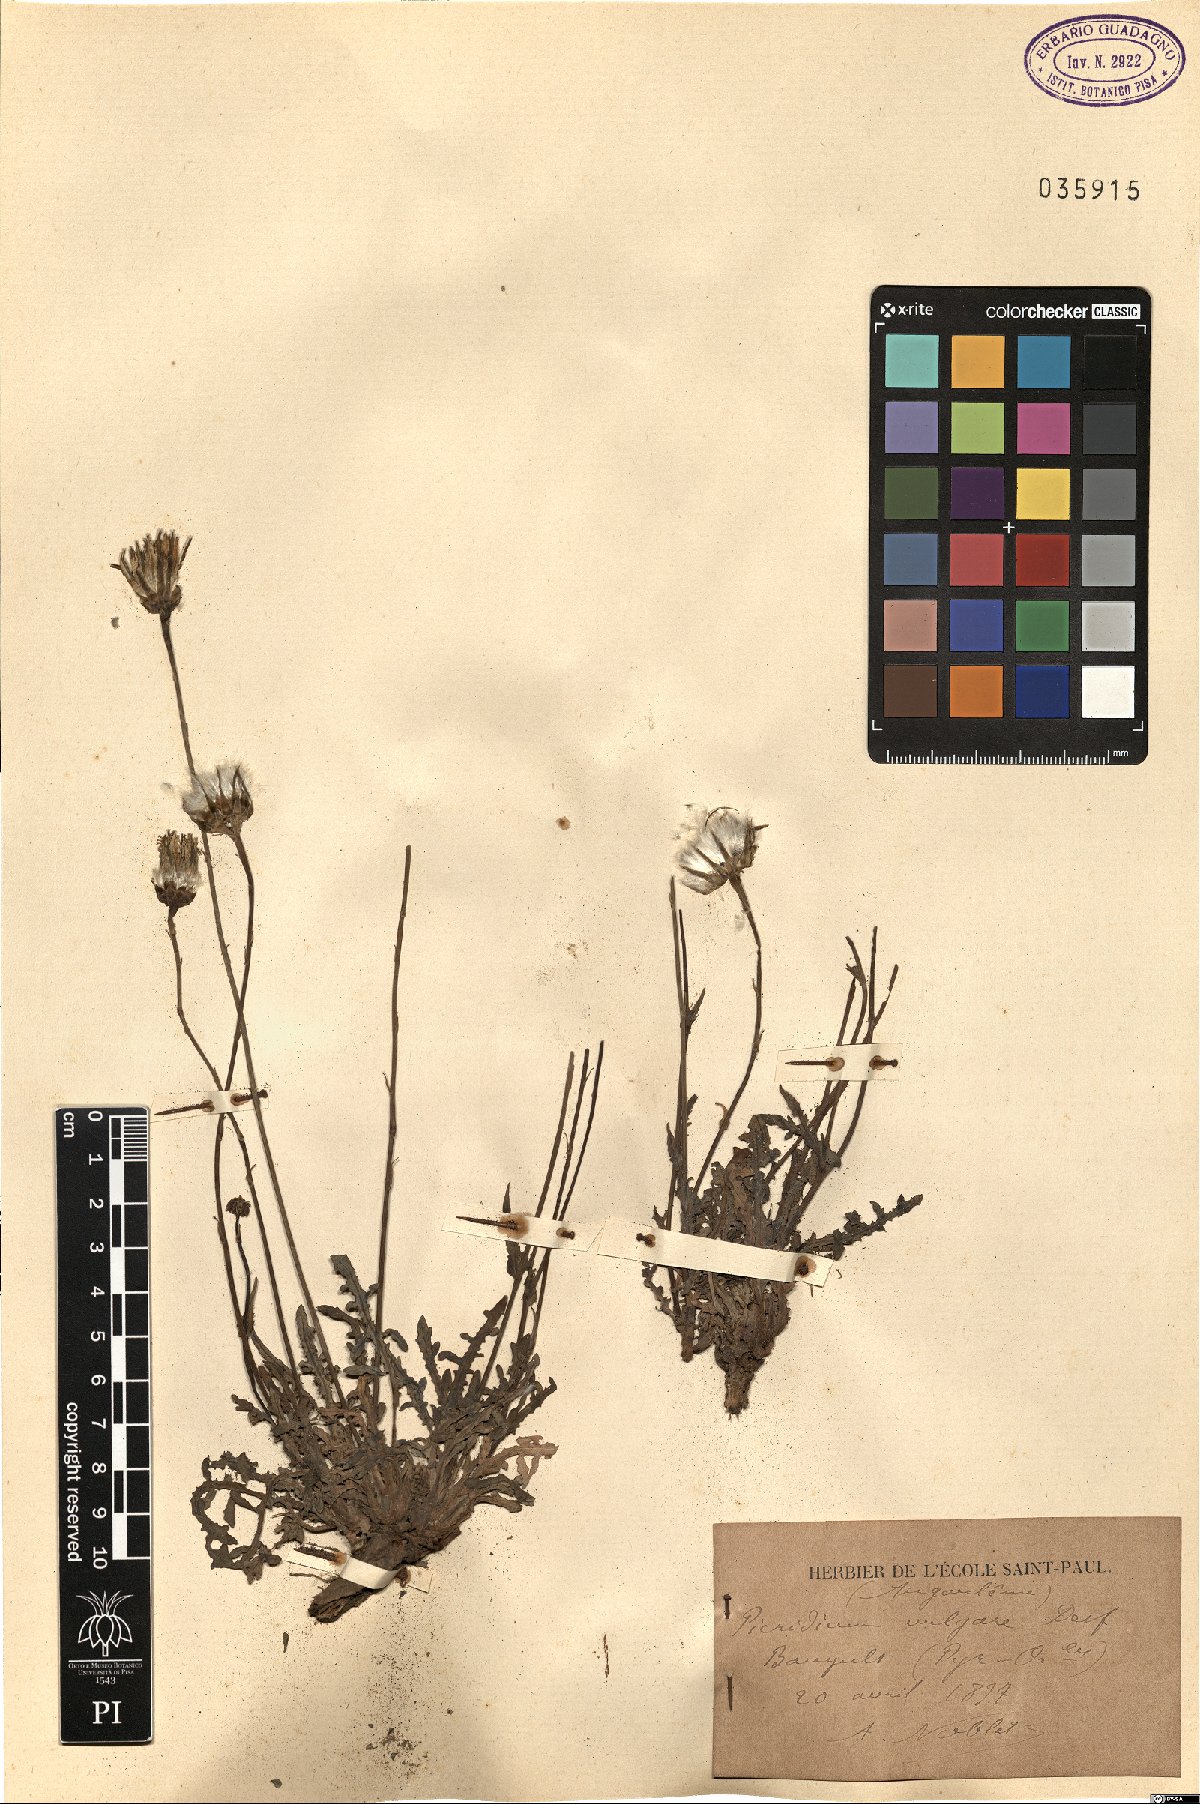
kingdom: Plantae
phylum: Tracheophyta
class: Magnoliopsida
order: Asterales
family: Asteraceae
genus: Reichardia
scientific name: Reichardia picroides
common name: Common brighteyes
